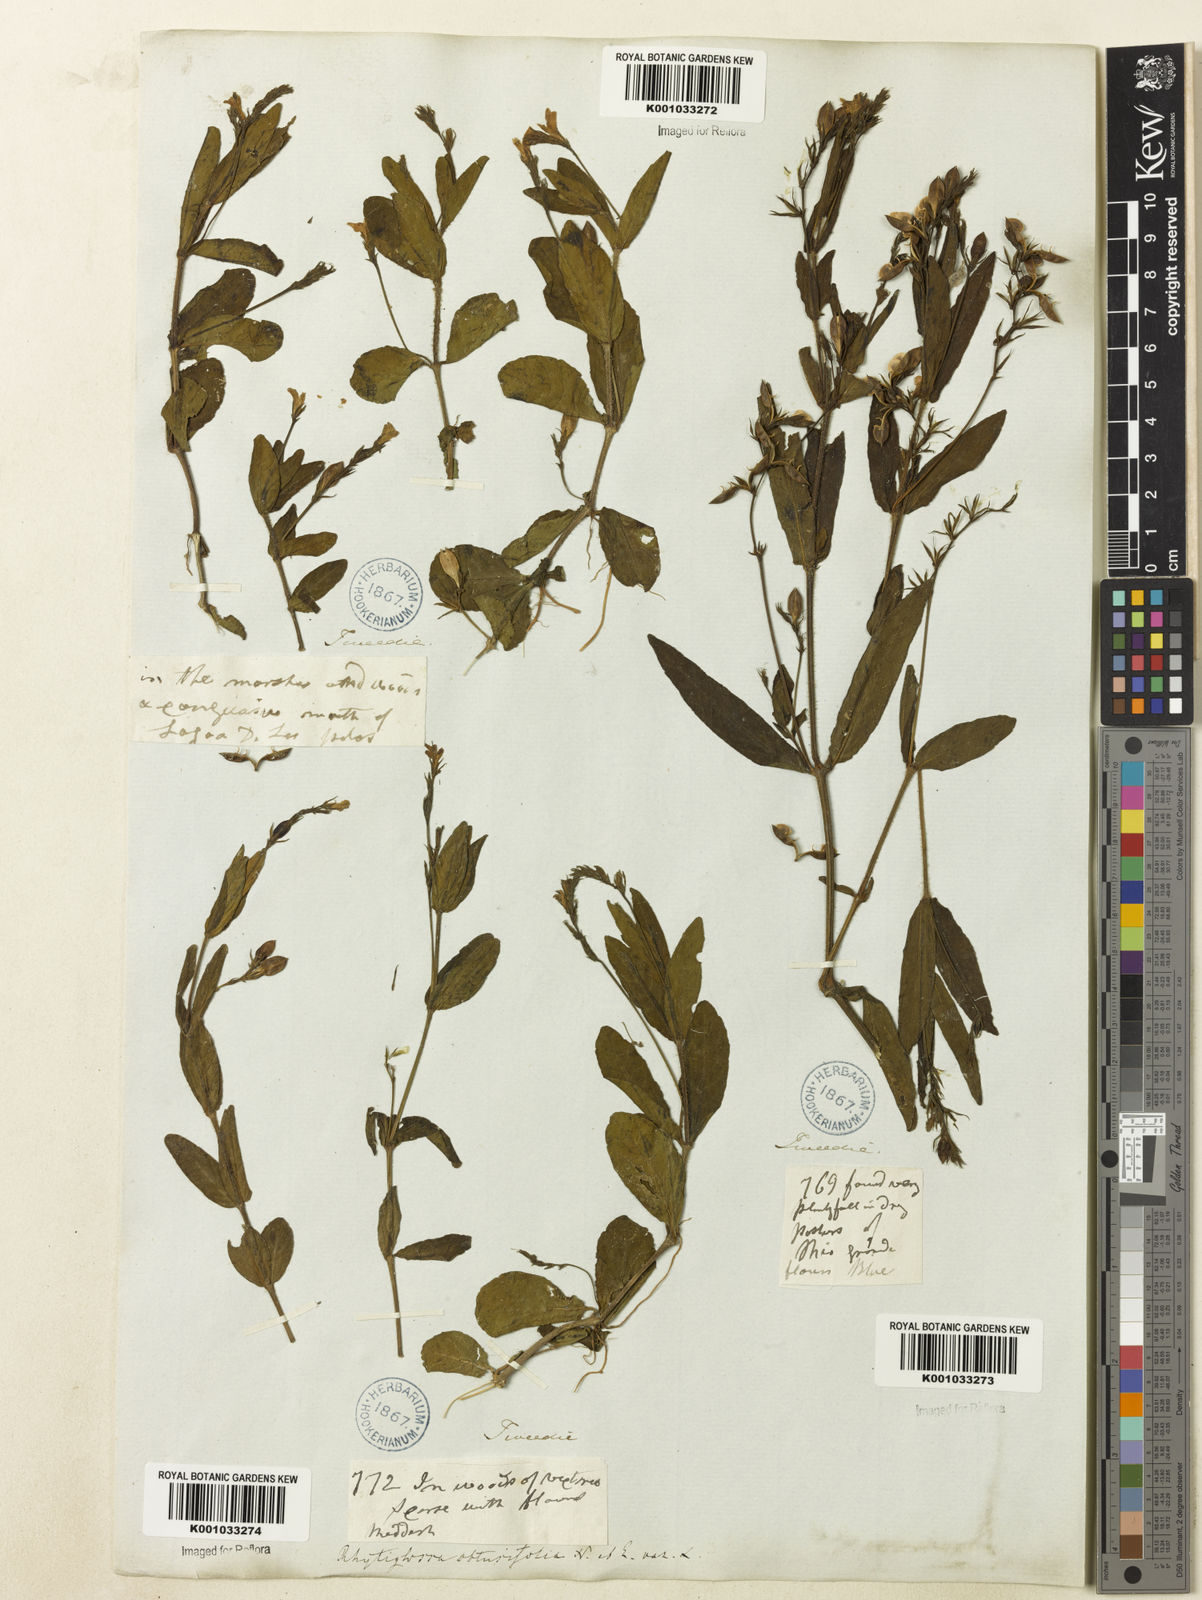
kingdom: Plantae
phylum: Tracheophyta
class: Magnoliopsida
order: Lamiales
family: Acanthaceae
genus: Dianthera
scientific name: Dianthera laevilinguis
